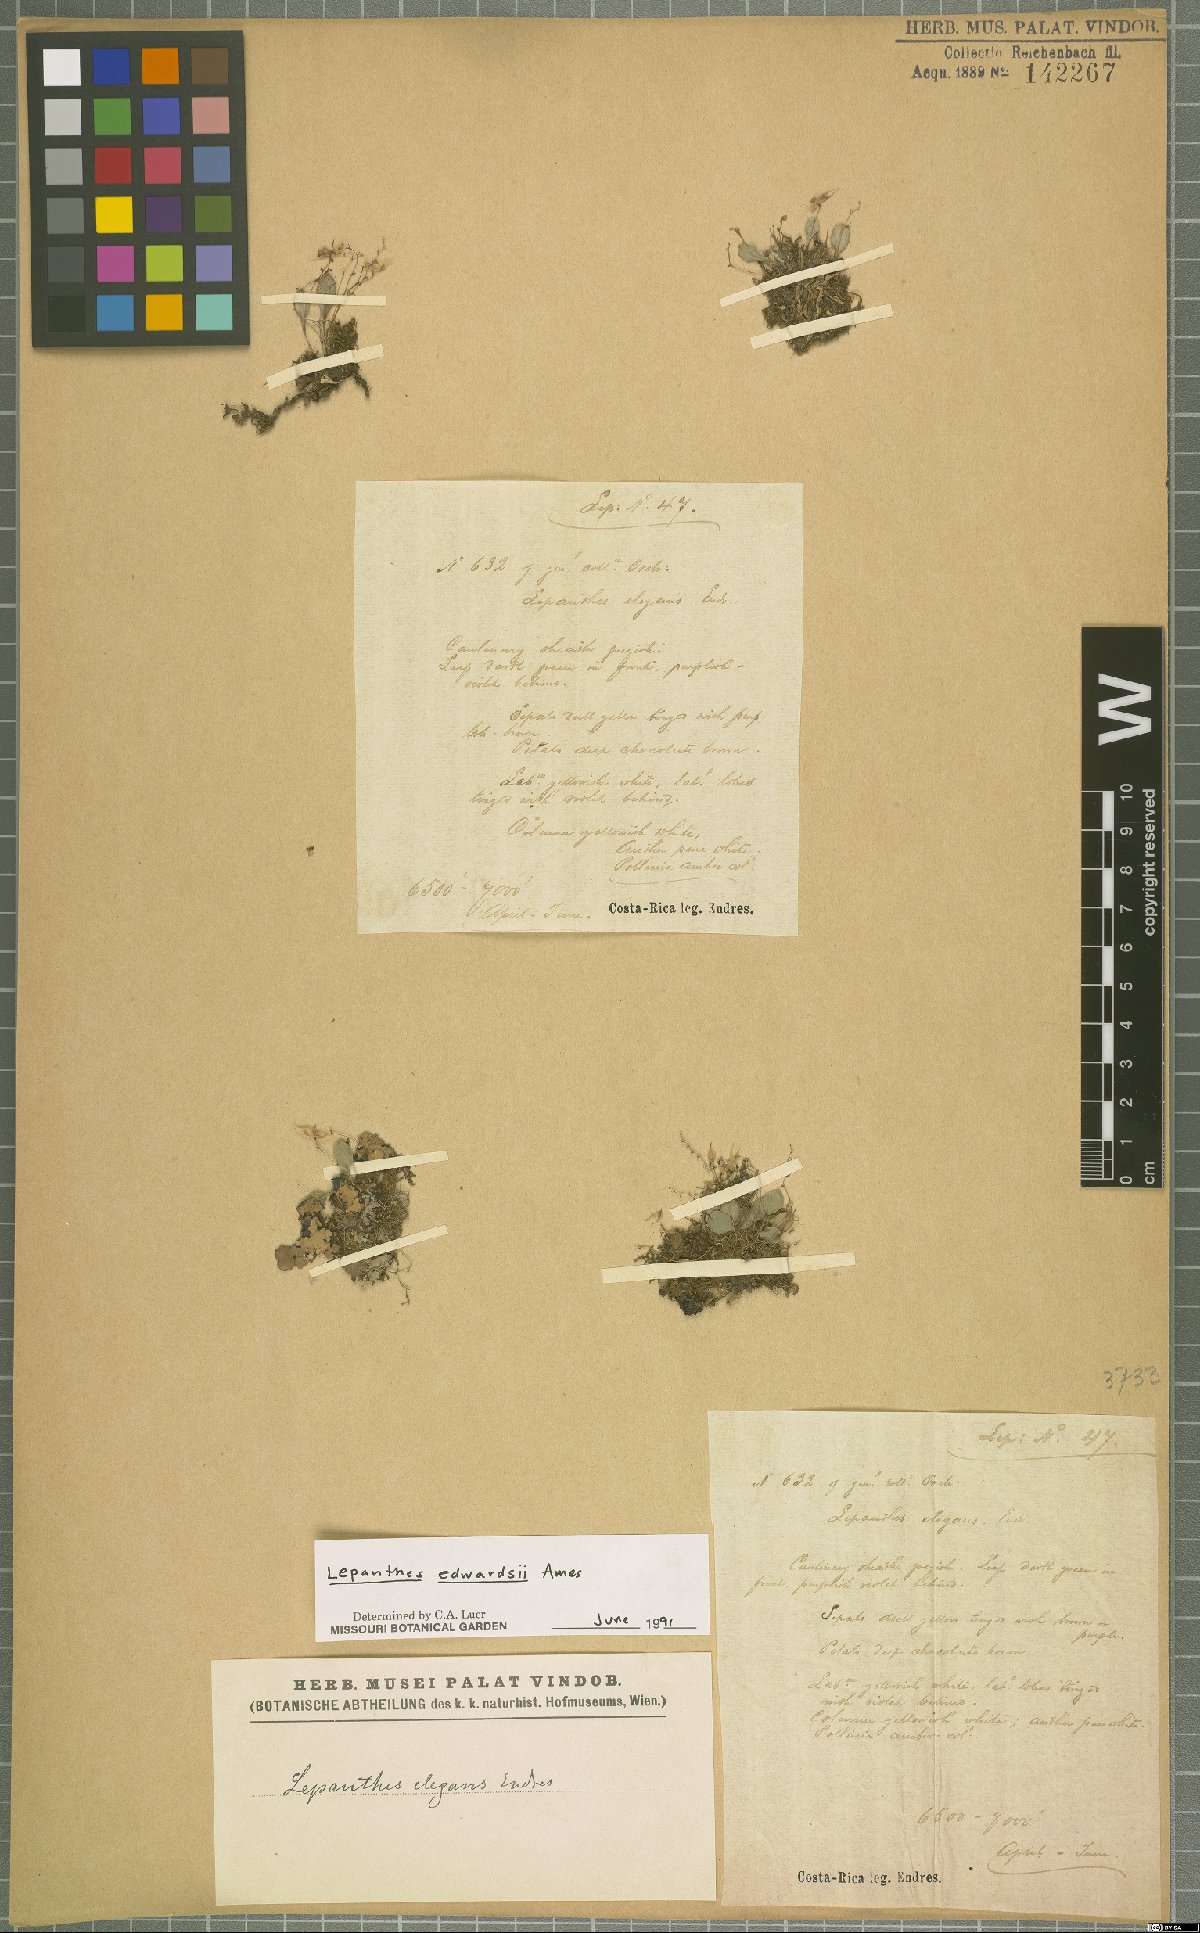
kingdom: Plantae
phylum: Tracheophyta
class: Liliopsida
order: Asparagales
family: Orchidaceae
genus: Lepanthes
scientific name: Lepanthes edwardsii
